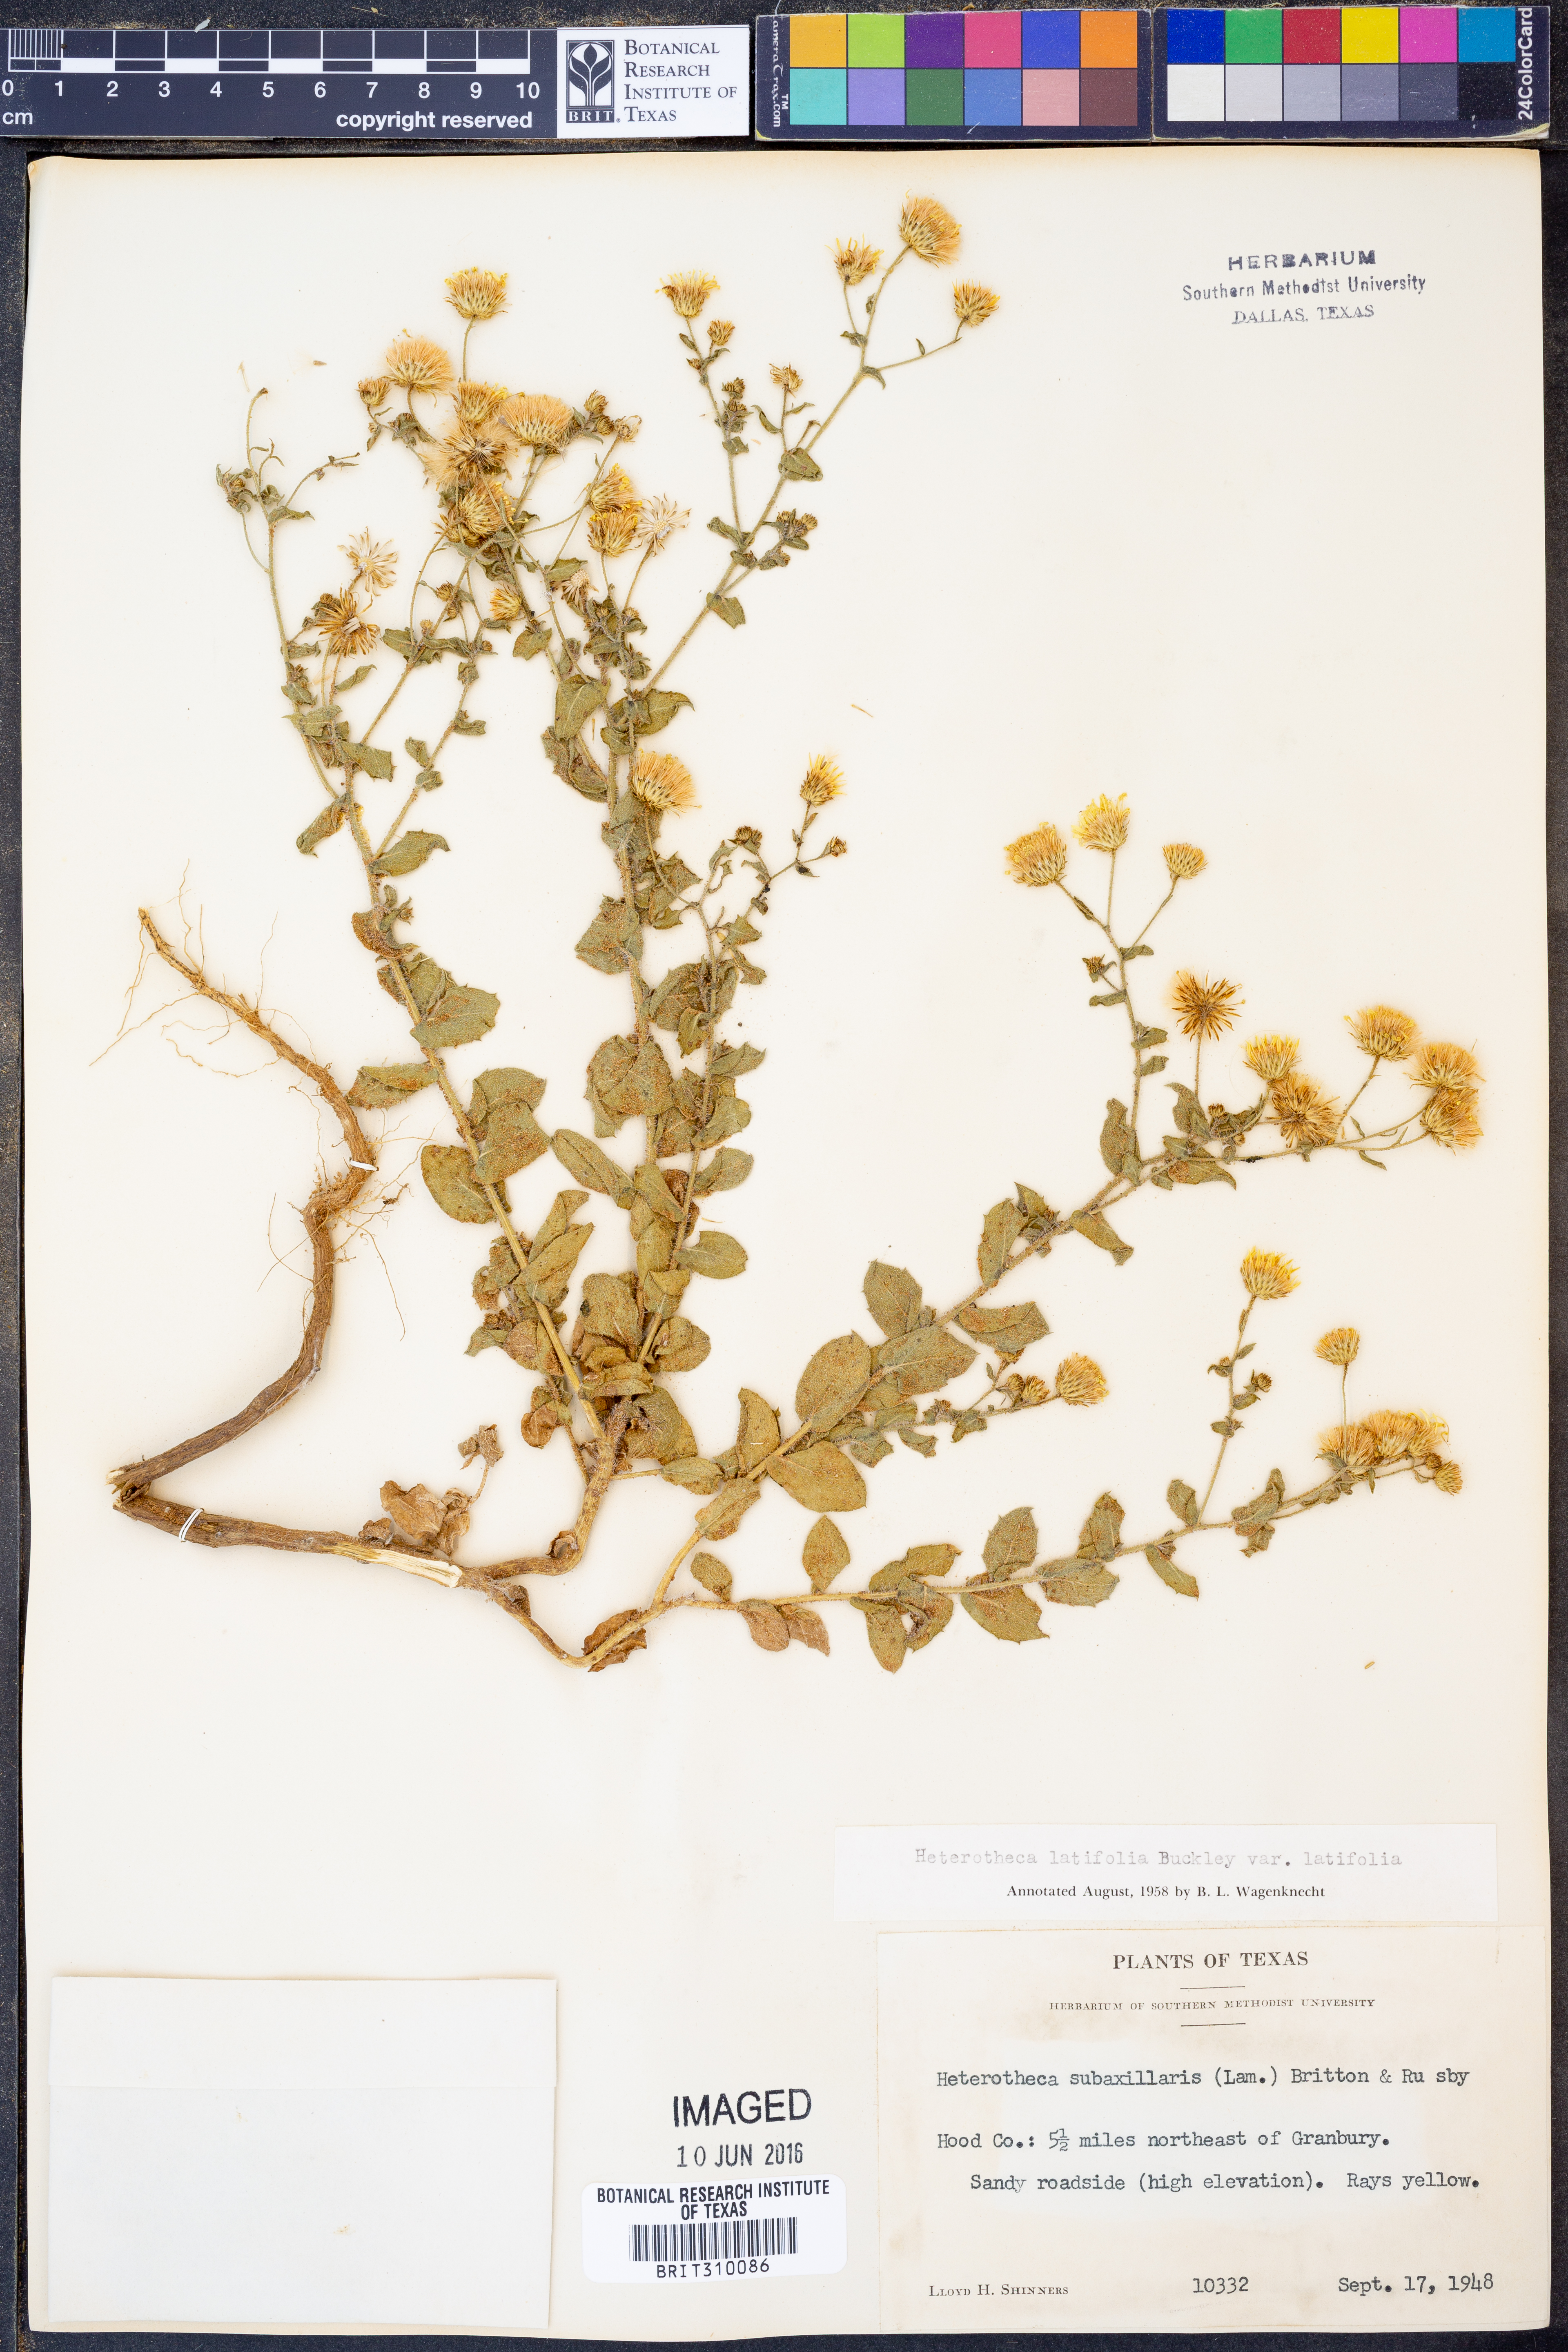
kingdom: Plantae
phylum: Tracheophyta
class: Magnoliopsida
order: Asterales
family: Asteraceae
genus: Heterotheca
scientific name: Heterotheca subaxillaris
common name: Camphorweed
